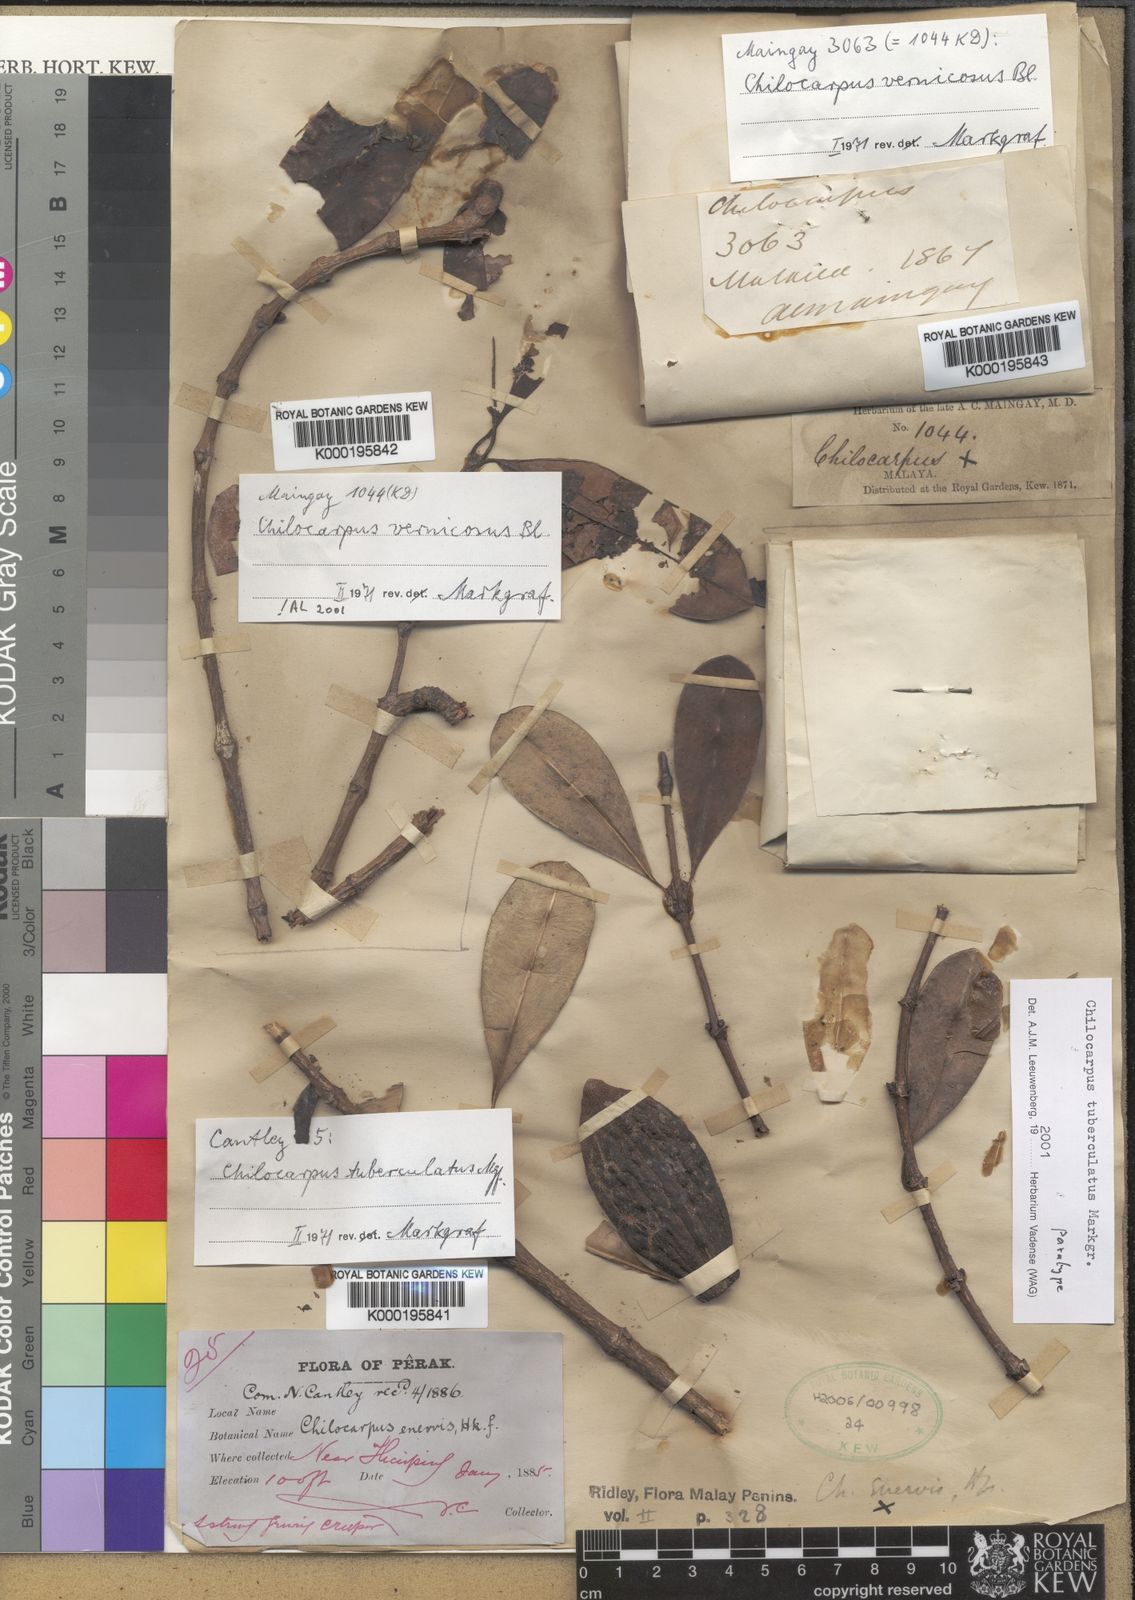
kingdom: Plantae
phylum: Tracheophyta
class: Magnoliopsida
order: Gentianales
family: Apocynaceae
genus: Chilocarpus
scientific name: Chilocarpus vernicosus
